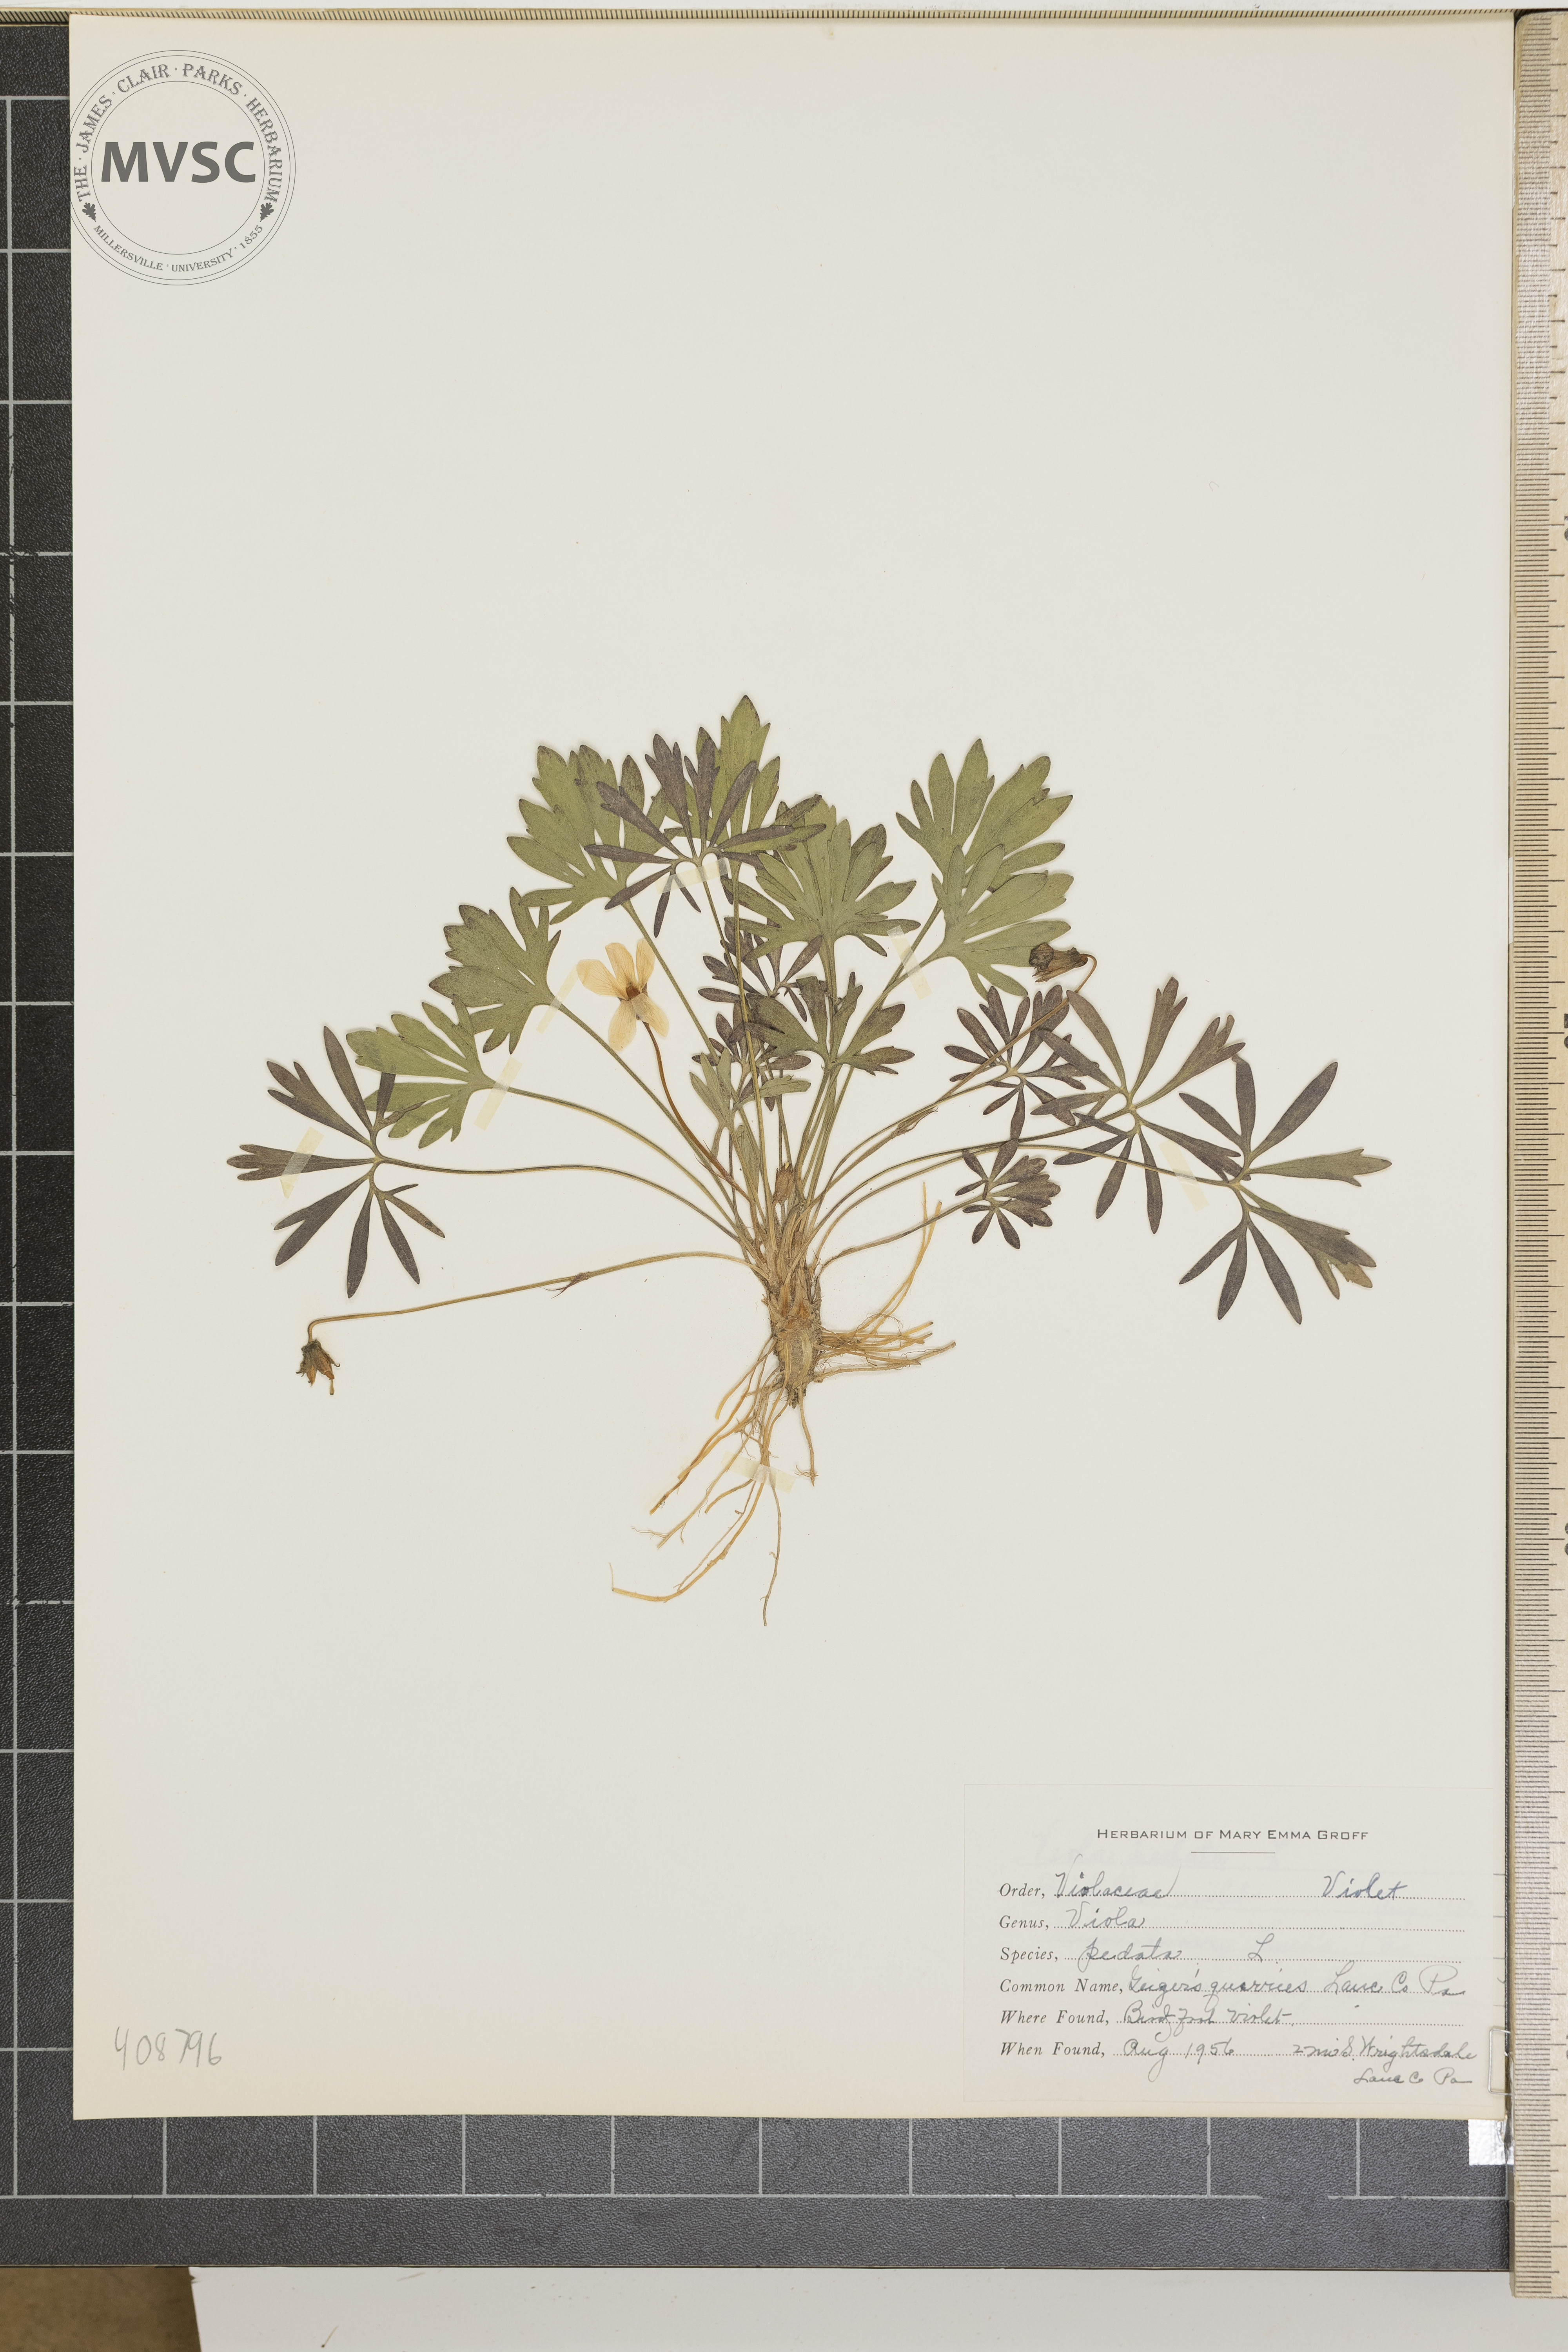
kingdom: Plantae
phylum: Tracheophyta
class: Magnoliopsida
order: Malpighiales
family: Violaceae
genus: Viola
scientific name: Viola pedata
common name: Bird's-foot violet
